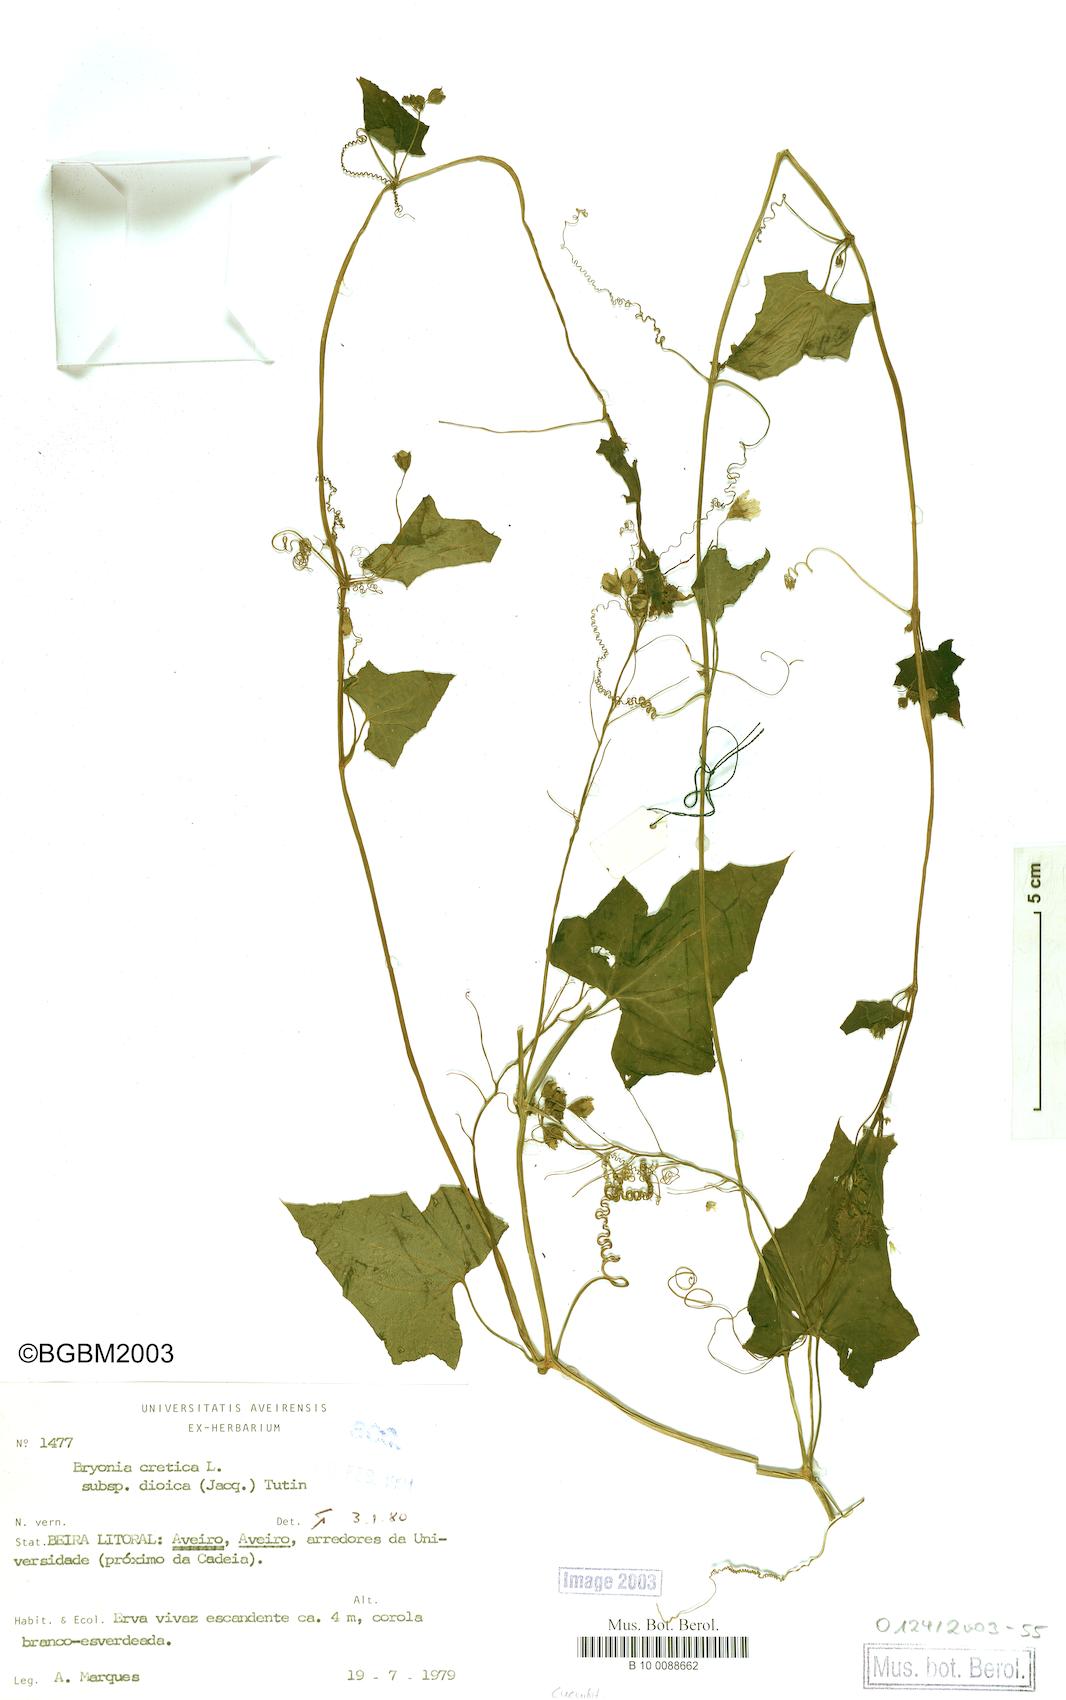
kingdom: Plantae
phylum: Tracheophyta
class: Magnoliopsida
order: Cucurbitales
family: Cucurbitaceae
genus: Bryonia
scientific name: Bryonia dioica
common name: White bryony
